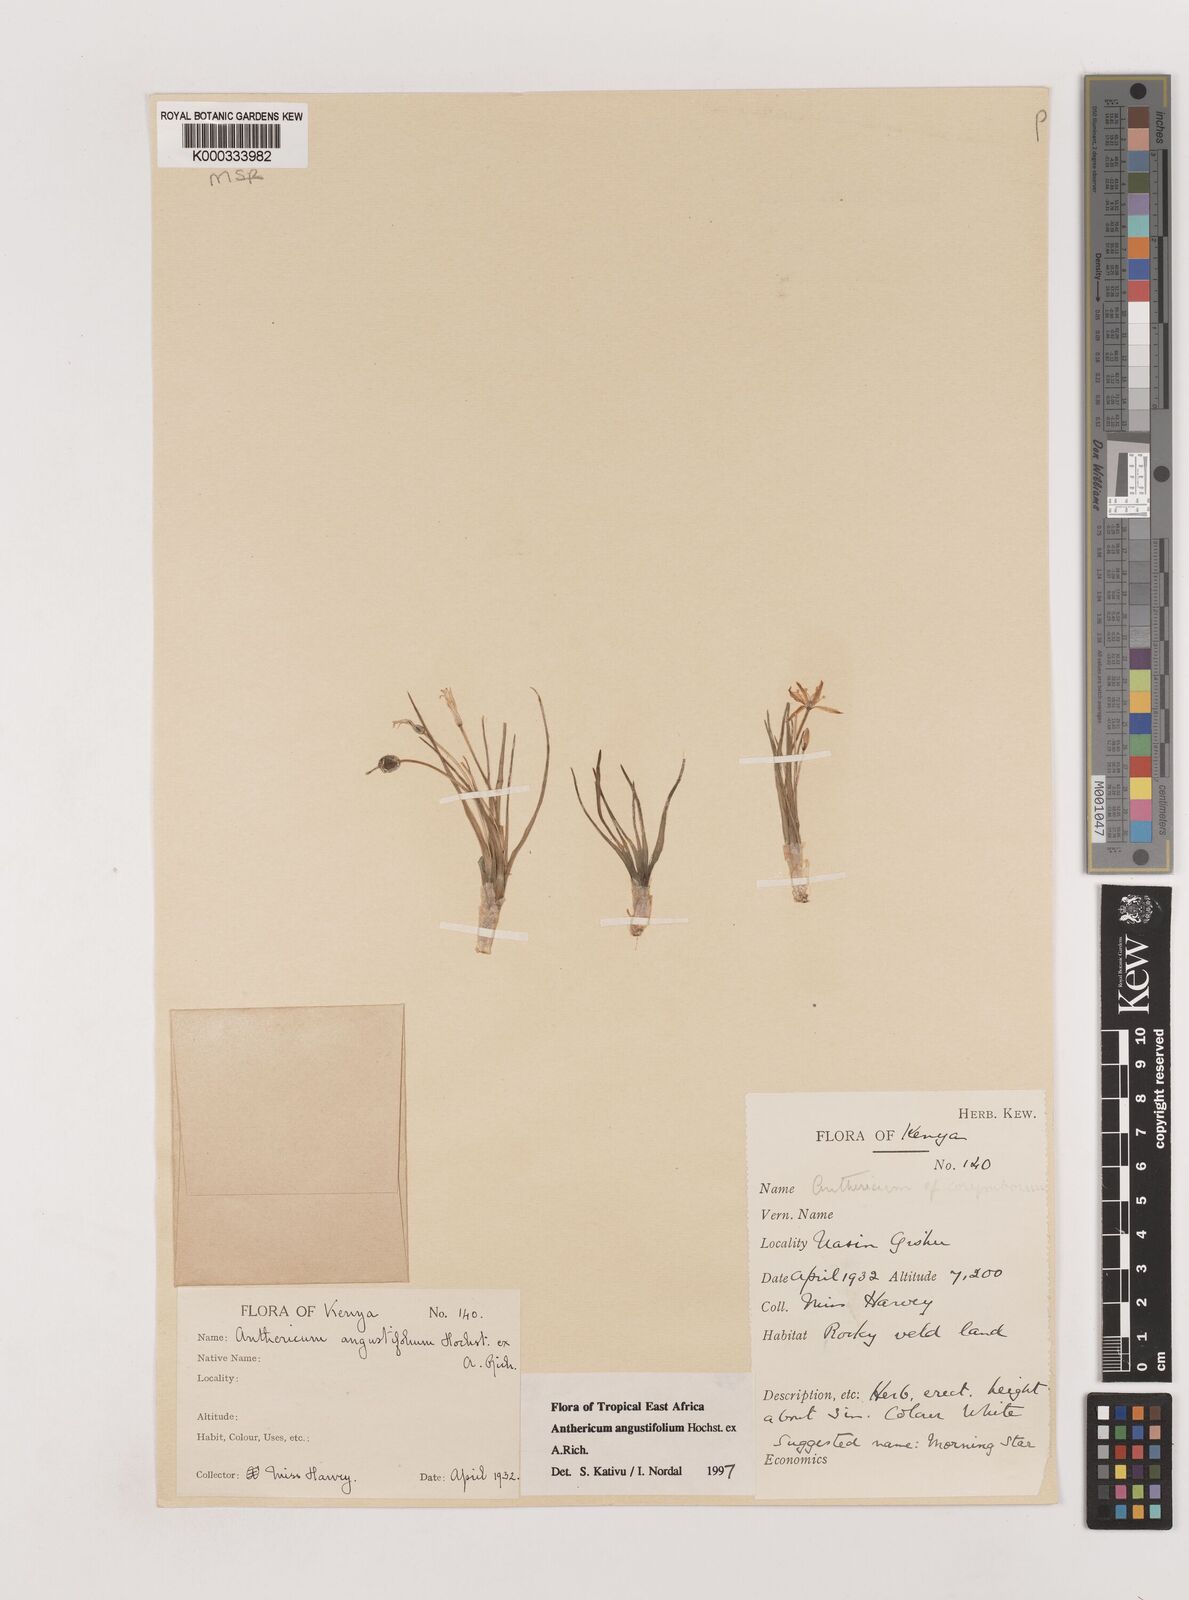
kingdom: Plantae
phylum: Tracheophyta
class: Liliopsida
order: Asparagales
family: Asparagaceae
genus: Anthericum
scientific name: Anthericum angustifolium
